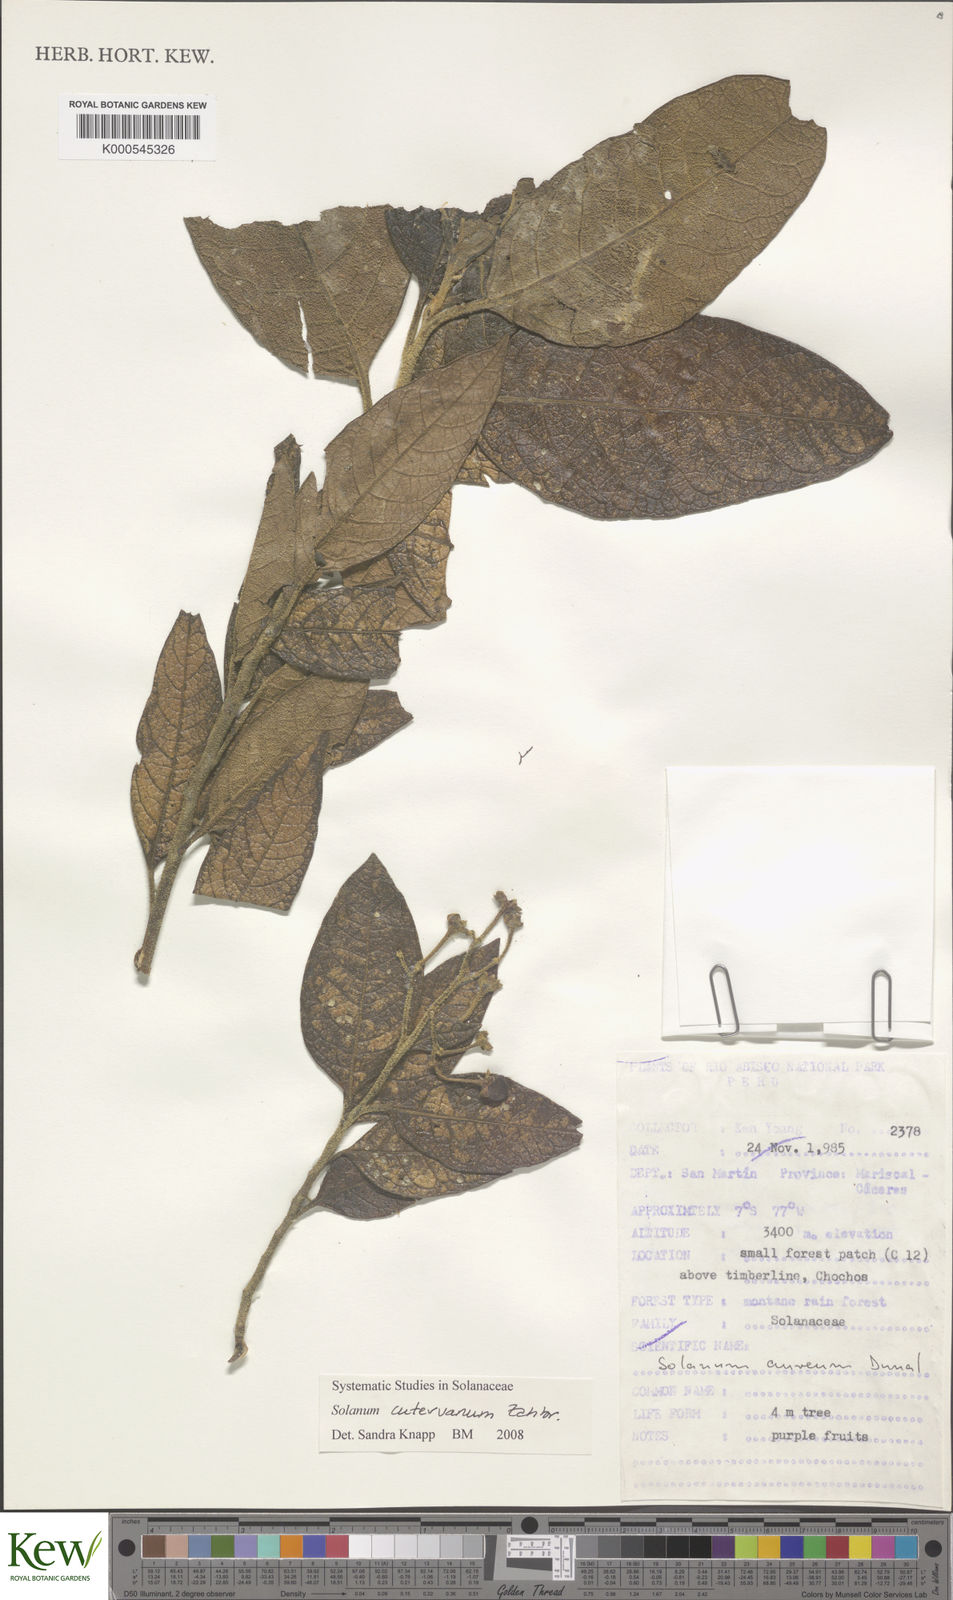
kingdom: Plantae
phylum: Tracheophyta
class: Magnoliopsida
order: Solanales
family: Solanaceae
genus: Solanum
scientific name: Solanum cutervanum
